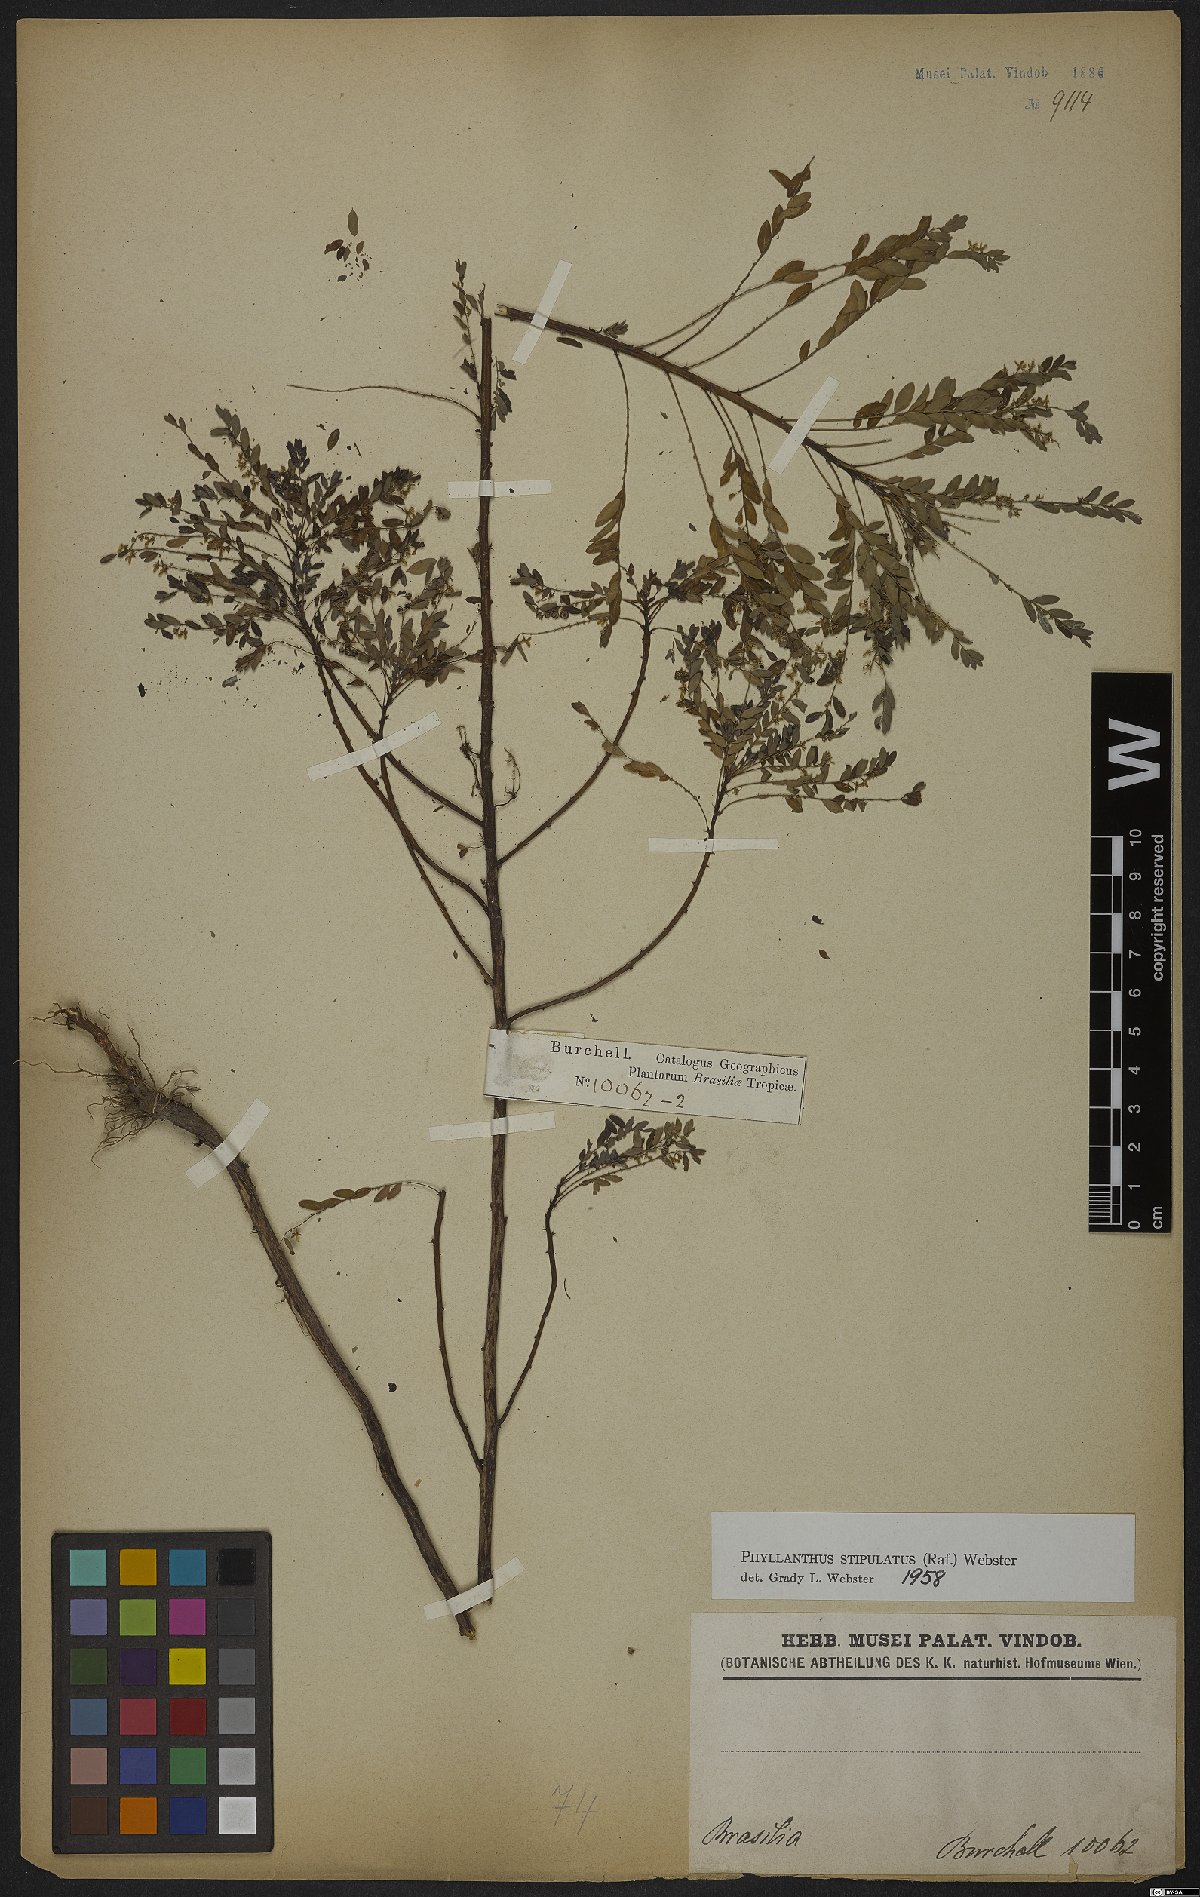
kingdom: Plantae
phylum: Tracheophyta
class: Magnoliopsida
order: Malpighiales
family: Phyllanthaceae
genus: Phyllanthus
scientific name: Phyllanthus stipulatus
